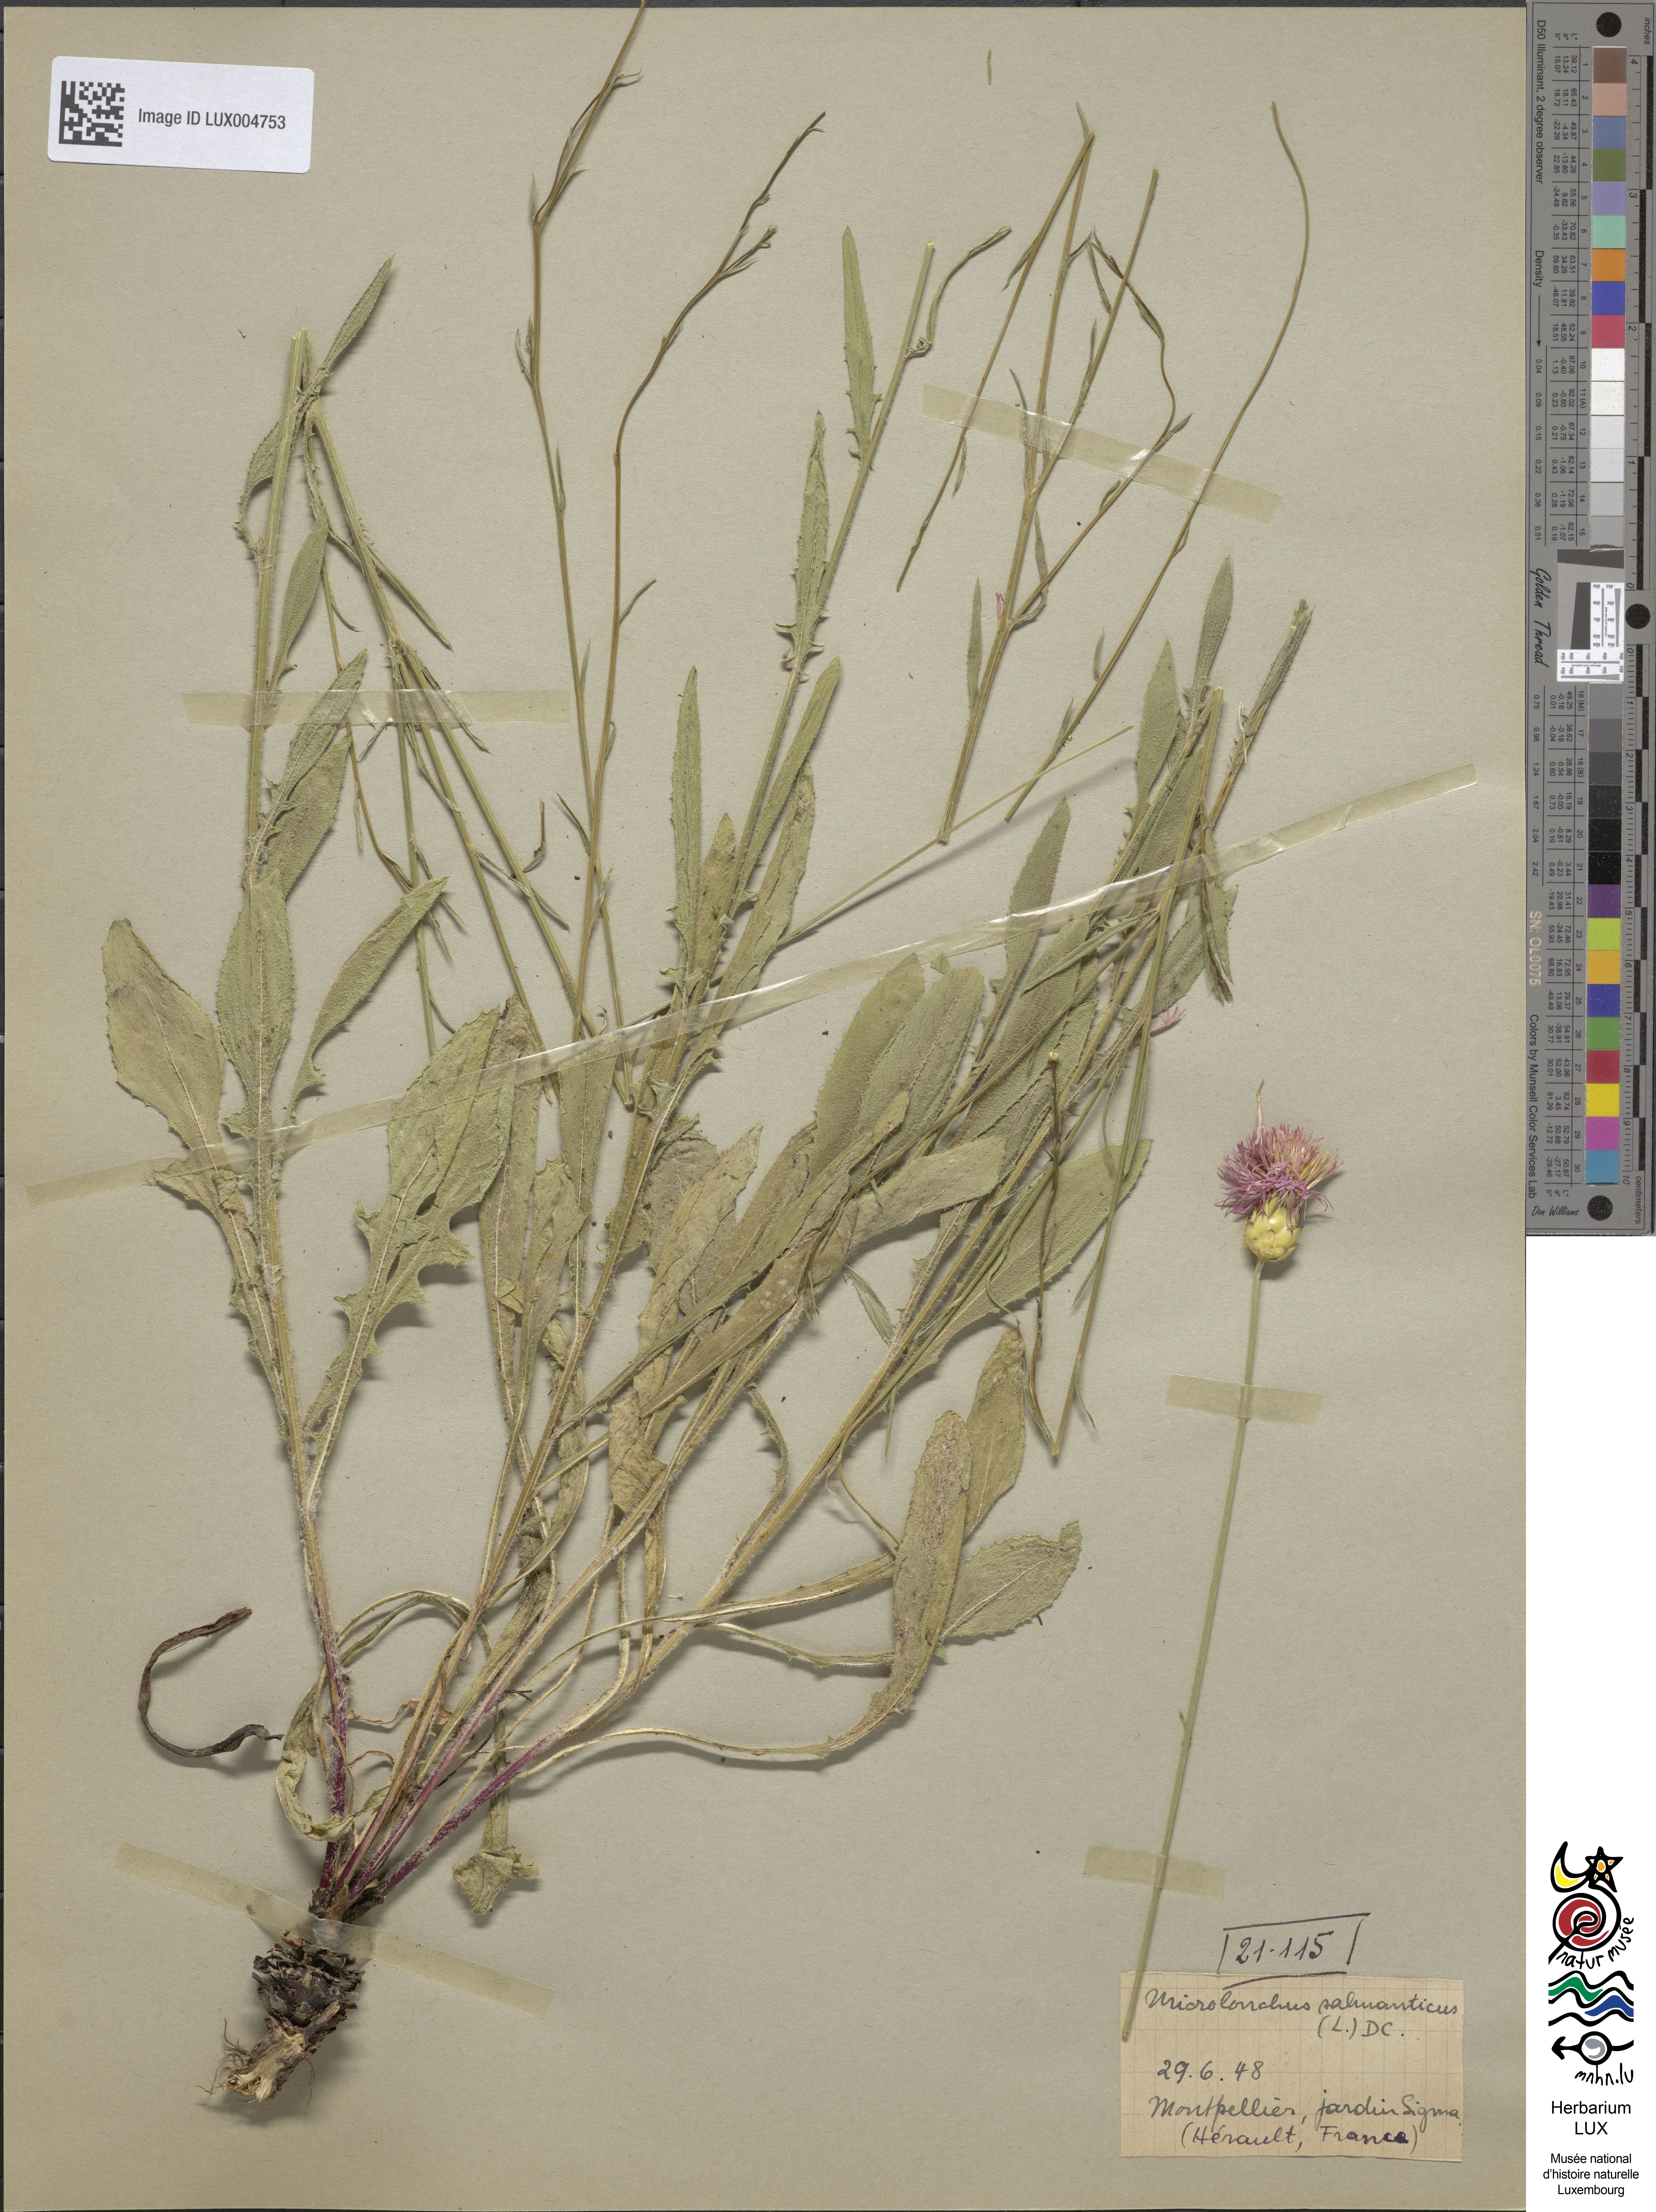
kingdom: Plantae
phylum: Tracheophyta
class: Magnoliopsida
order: Asterales
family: Asteraceae
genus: Mantisalca
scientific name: Mantisalca salmantica
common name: Dagger flower
